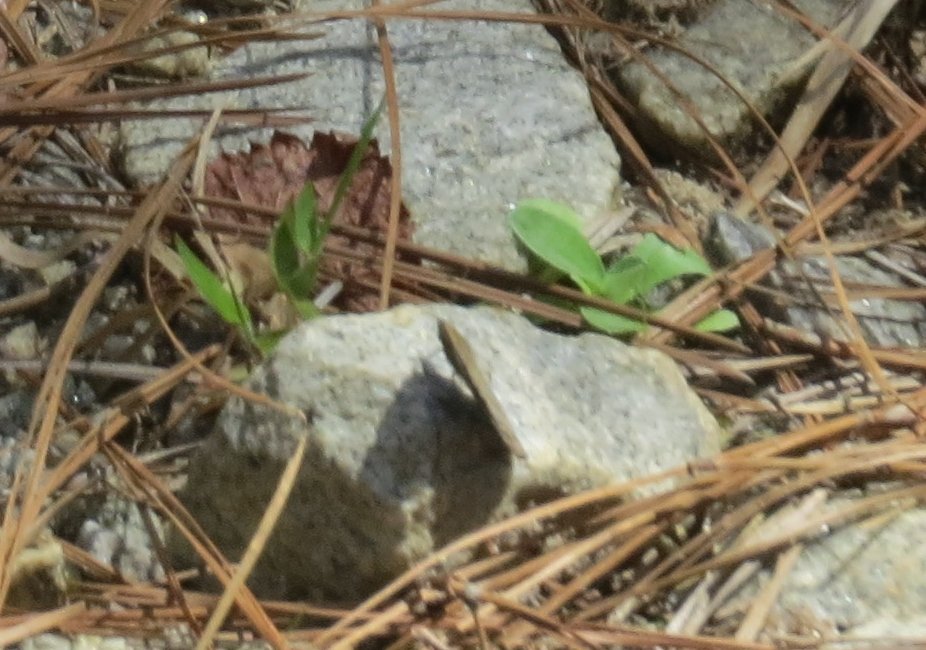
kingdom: Animalia
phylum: Arthropoda
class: Insecta
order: Lepidoptera
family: Nymphalidae
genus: Hermeuptychia
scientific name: Hermeuptychia hermes
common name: Carolina Satyr
